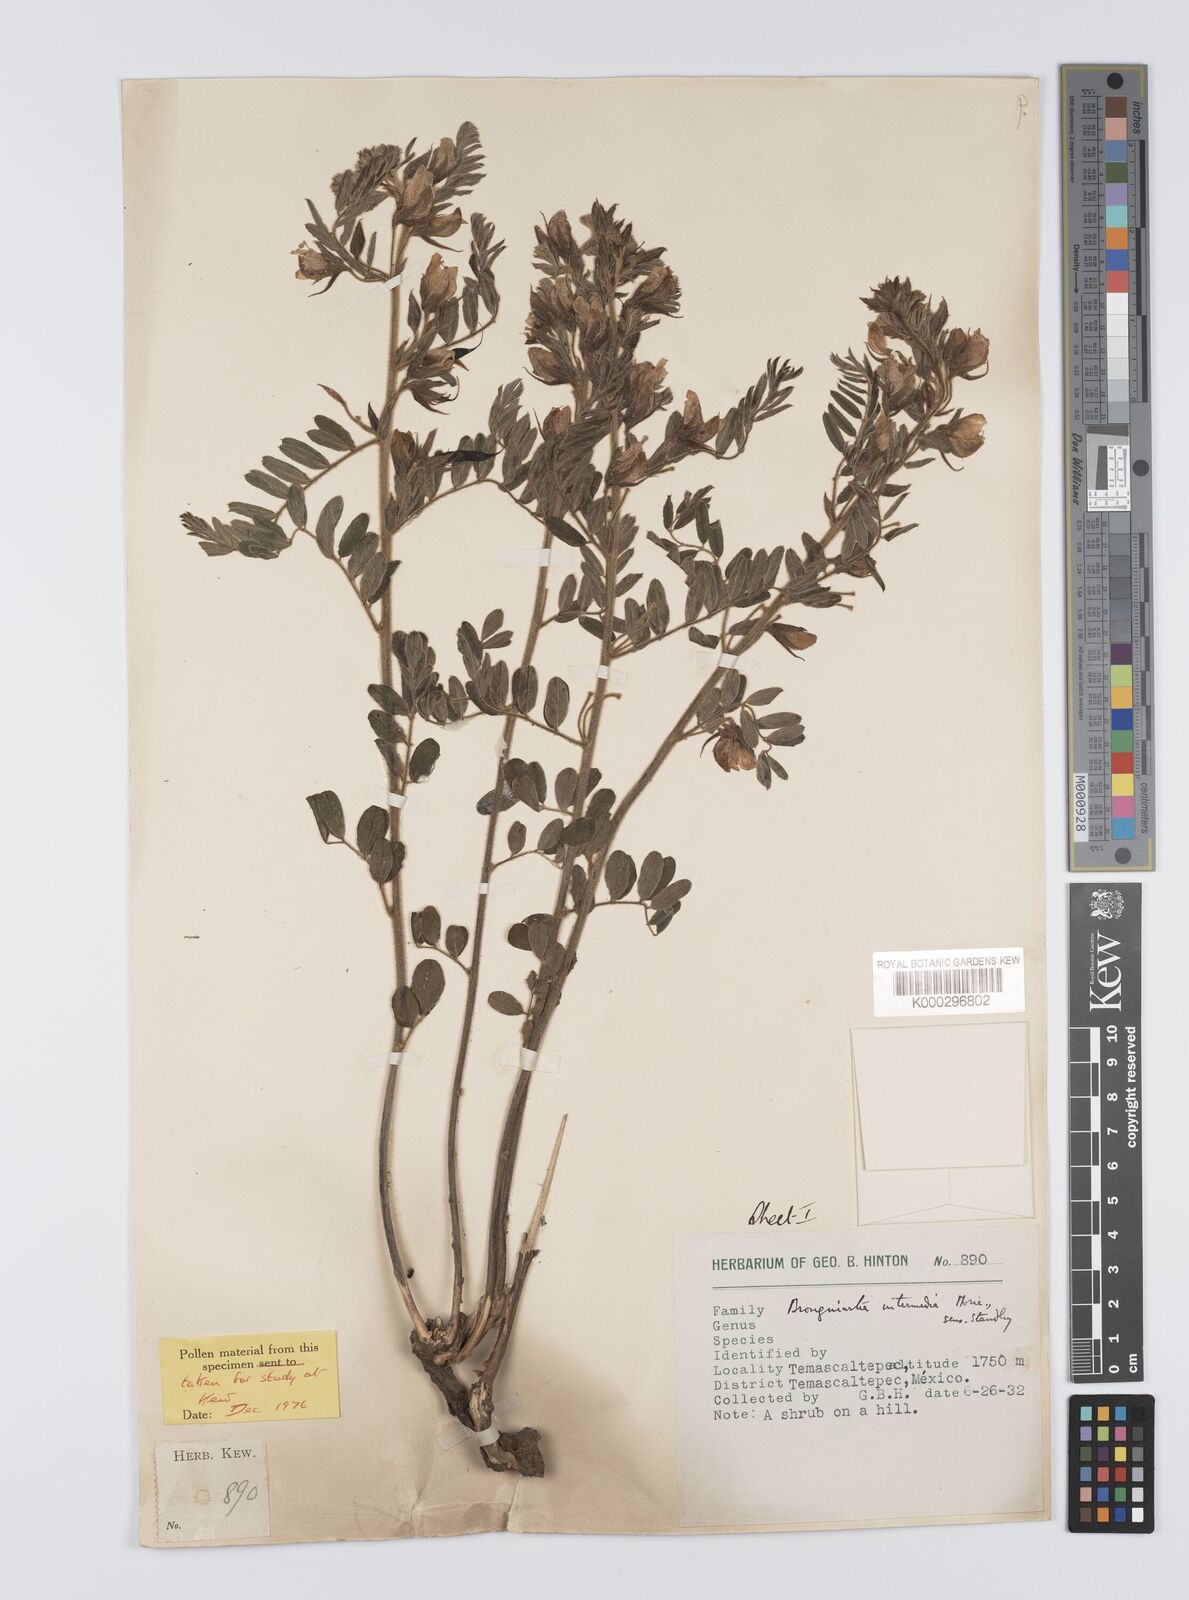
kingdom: Plantae
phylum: Tracheophyta
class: Magnoliopsida
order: Fabales
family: Fabaceae
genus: Brongniartia
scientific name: Brongniartia intermedia
